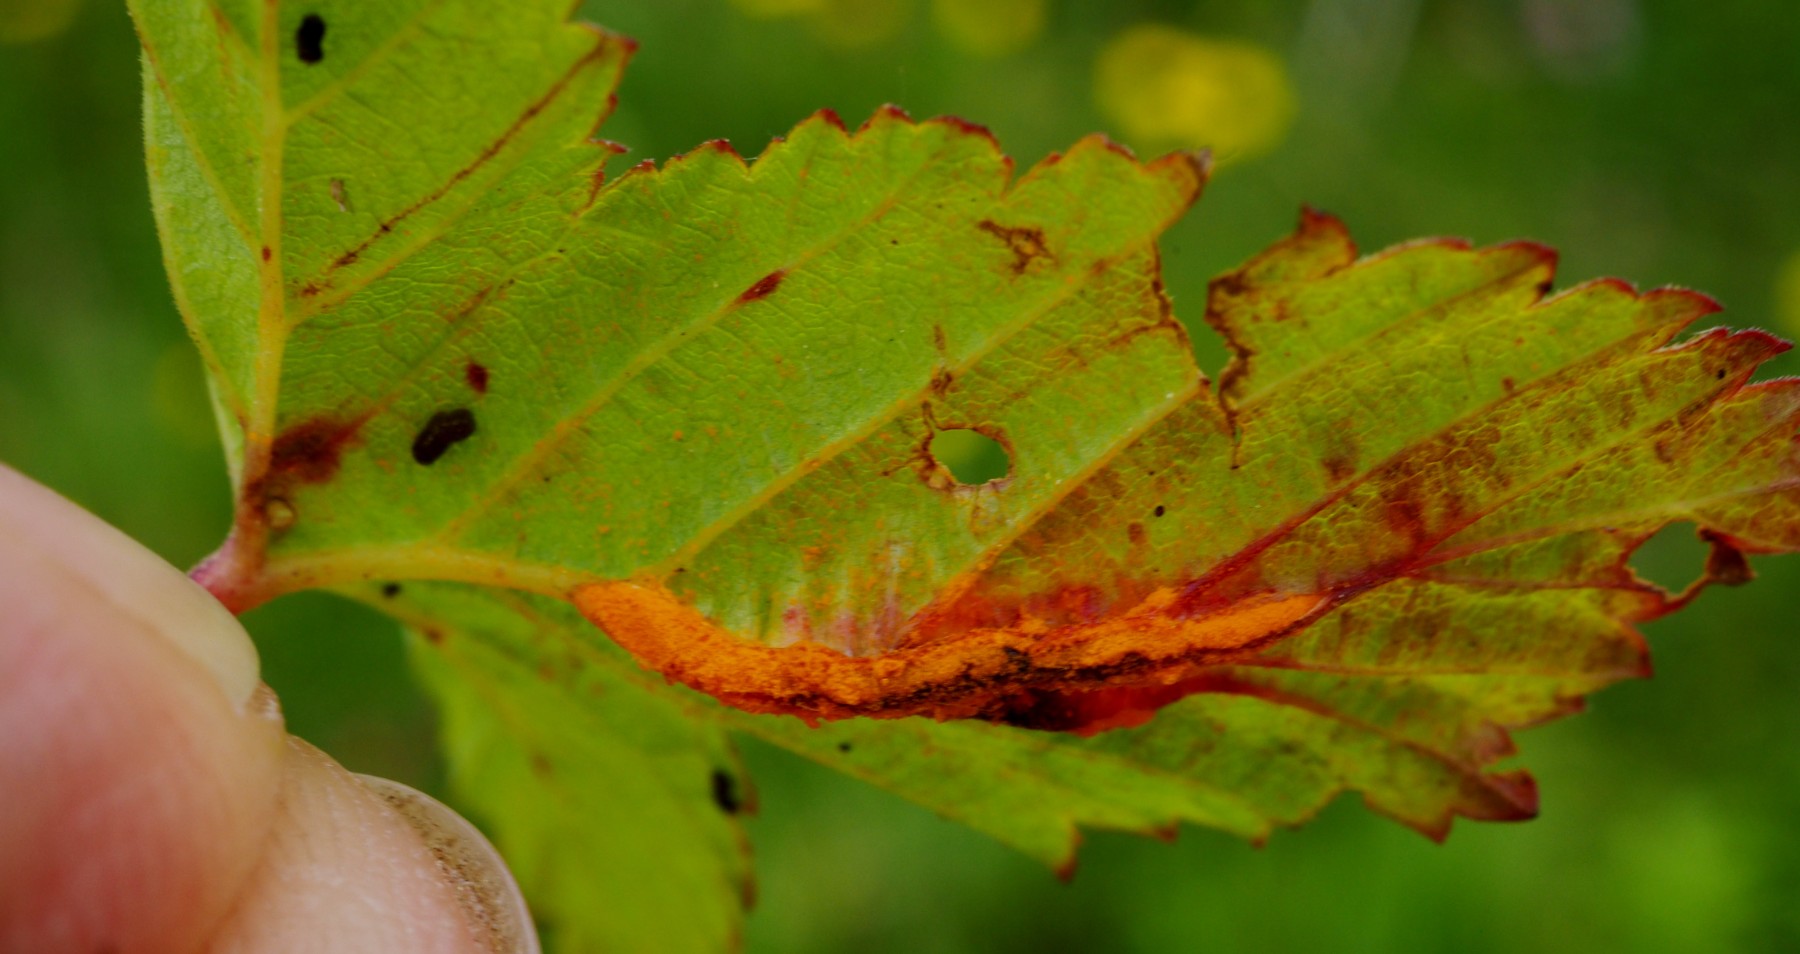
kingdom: Fungi
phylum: Basidiomycota
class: Pucciniomycetes
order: Pucciniales
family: Raveneliaceae
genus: Triphragmium
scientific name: Triphragmium ulmariae
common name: almindelig mjødurtrust
